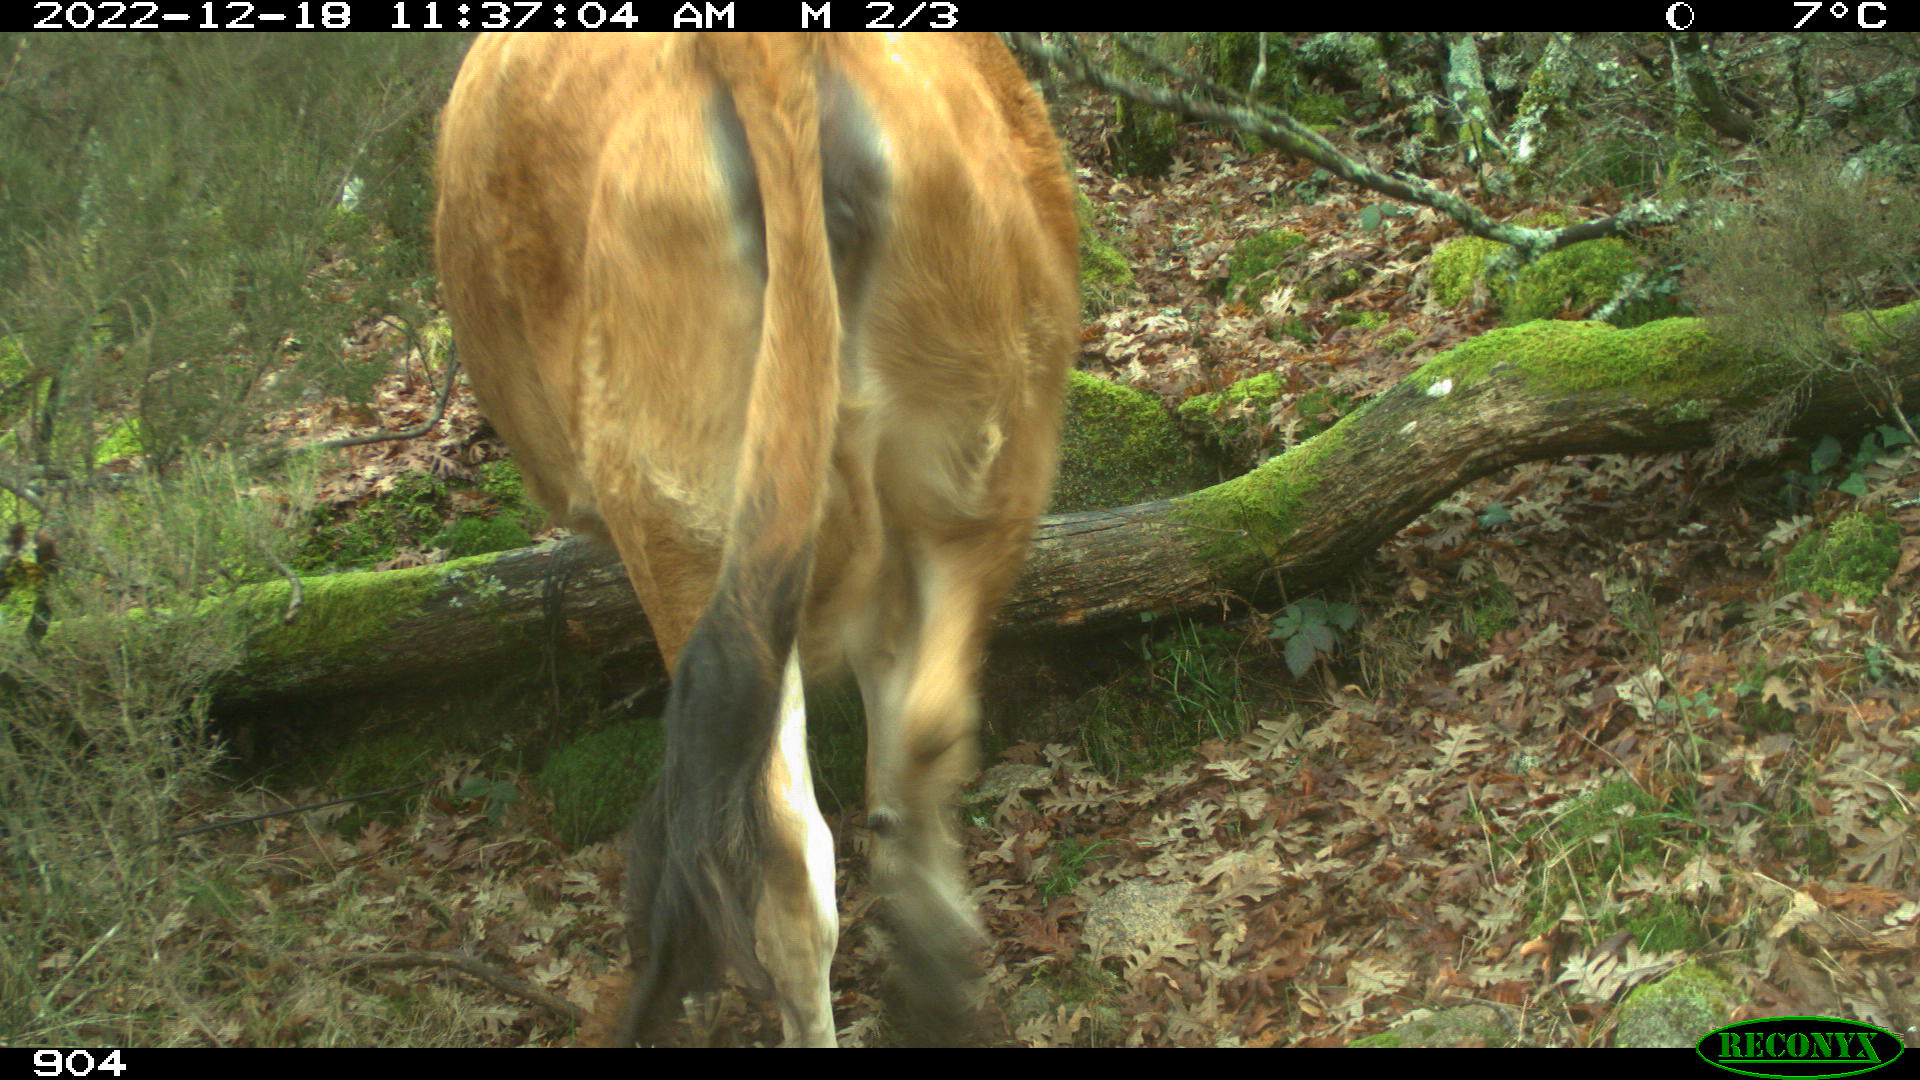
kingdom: Animalia
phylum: Chordata
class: Mammalia
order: Artiodactyla
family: Bovidae
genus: Bos
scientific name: Bos taurus
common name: Domesticated cattle
